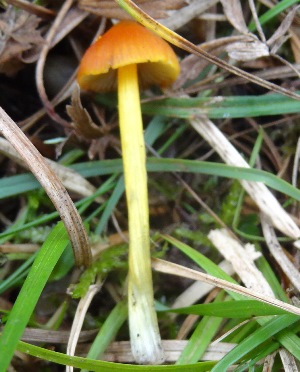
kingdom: Fungi
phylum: Basidiomycota
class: Agaricomycetes
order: Agaricales
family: Hygrophoraceae
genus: Hygrocybe
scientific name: Hygrocybe conica
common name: kegle-vokshat
